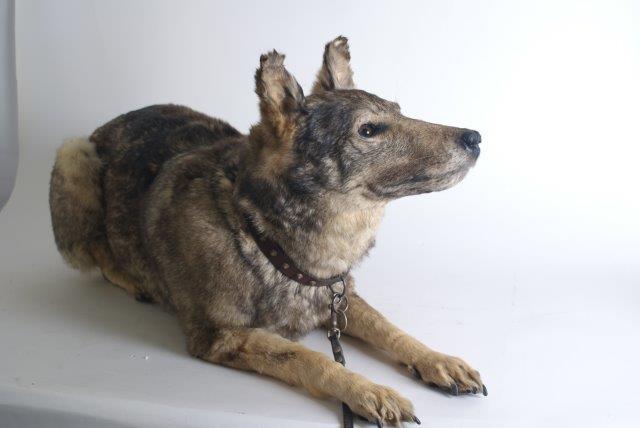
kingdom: Animalia
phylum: Chordata
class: Mammalia
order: Carnivora
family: Canidae
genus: Canis
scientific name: Canis lupus
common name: Gray wolf
